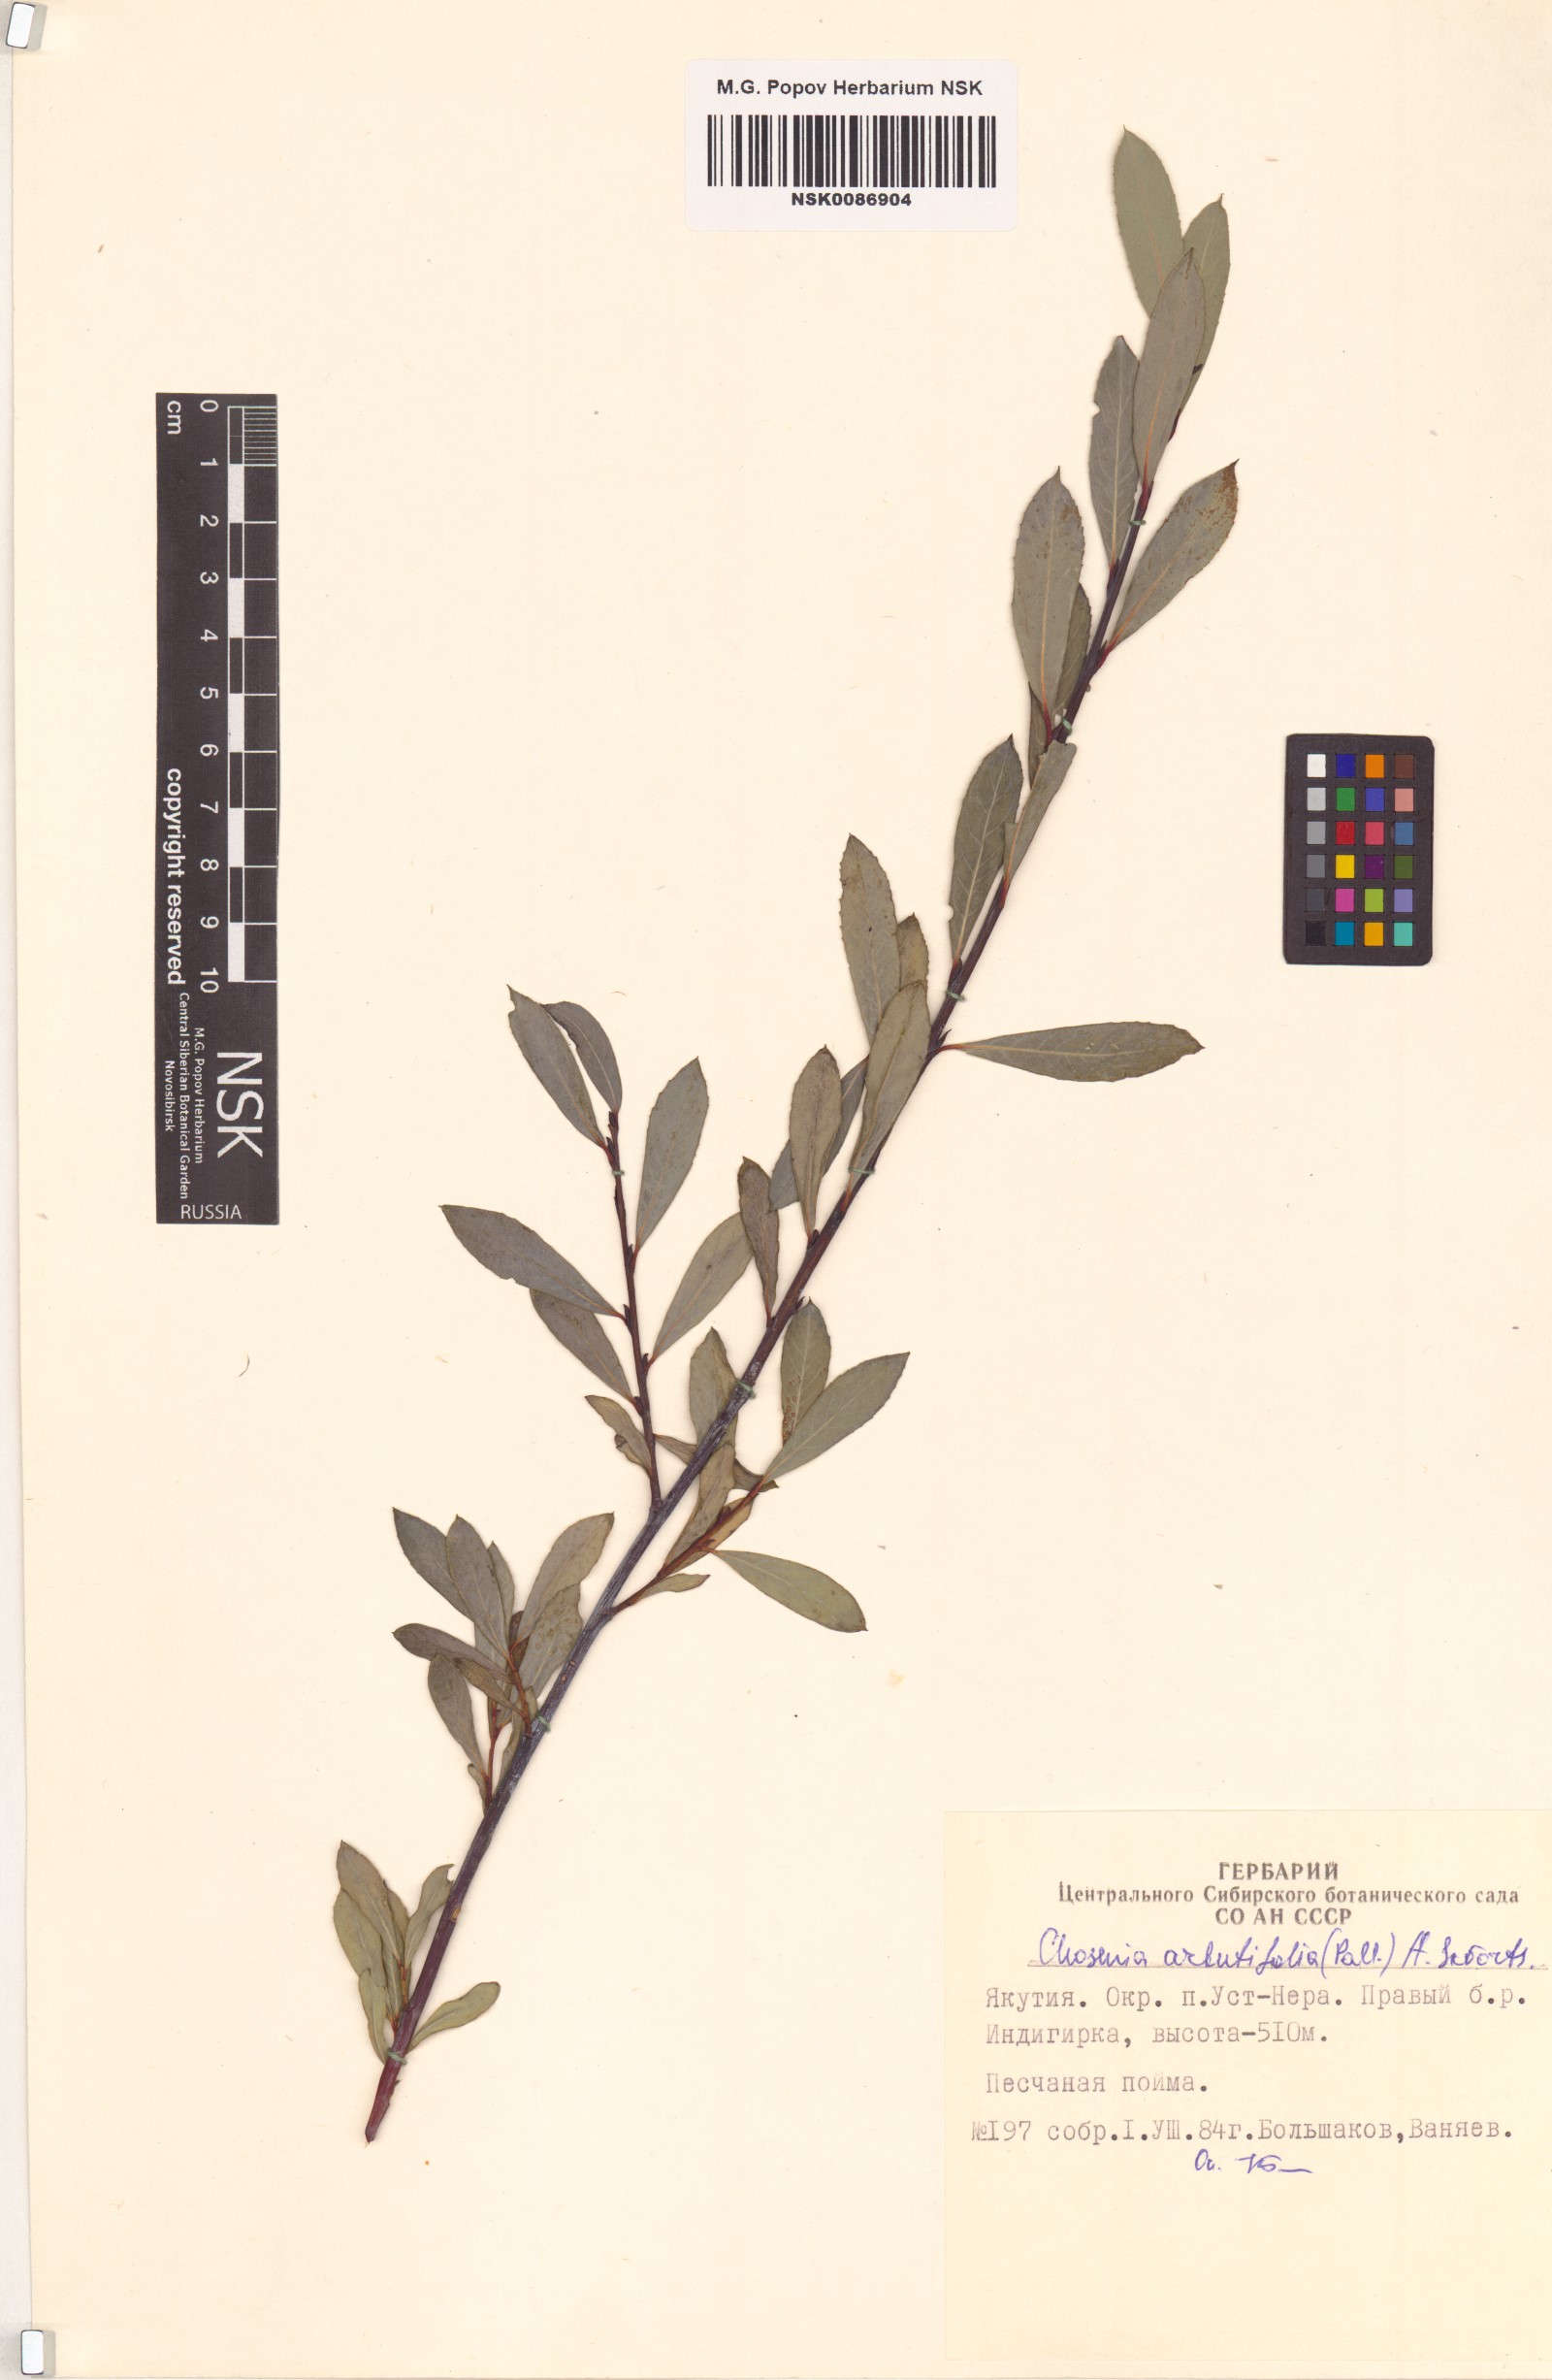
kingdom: Plantae
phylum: Tracheophyta
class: Magnoliopsida
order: Malpighiales
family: Salicaceae
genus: Chosenia
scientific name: Chosenia arbutifolia
